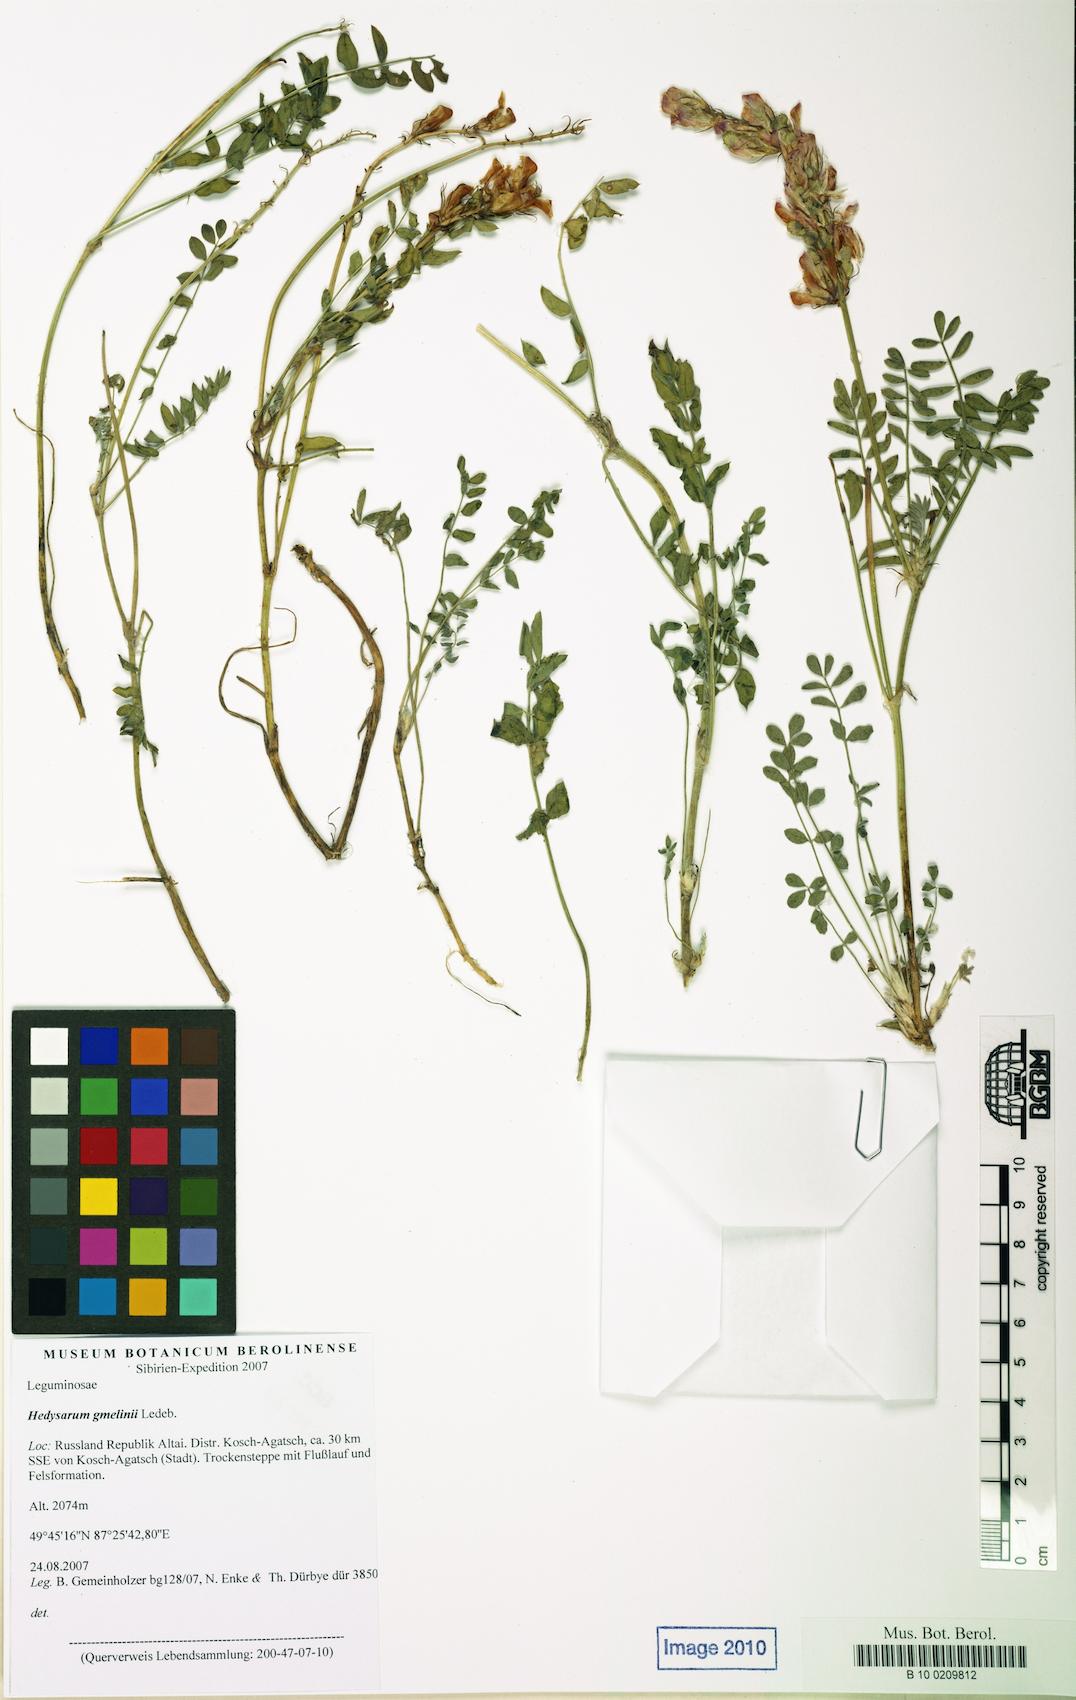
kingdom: Plantae
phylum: Tracheophyta
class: Magnoliopsida
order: Fabales
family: Fabaceae
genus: Hedysarum
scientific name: Hedysarum gmelinii
